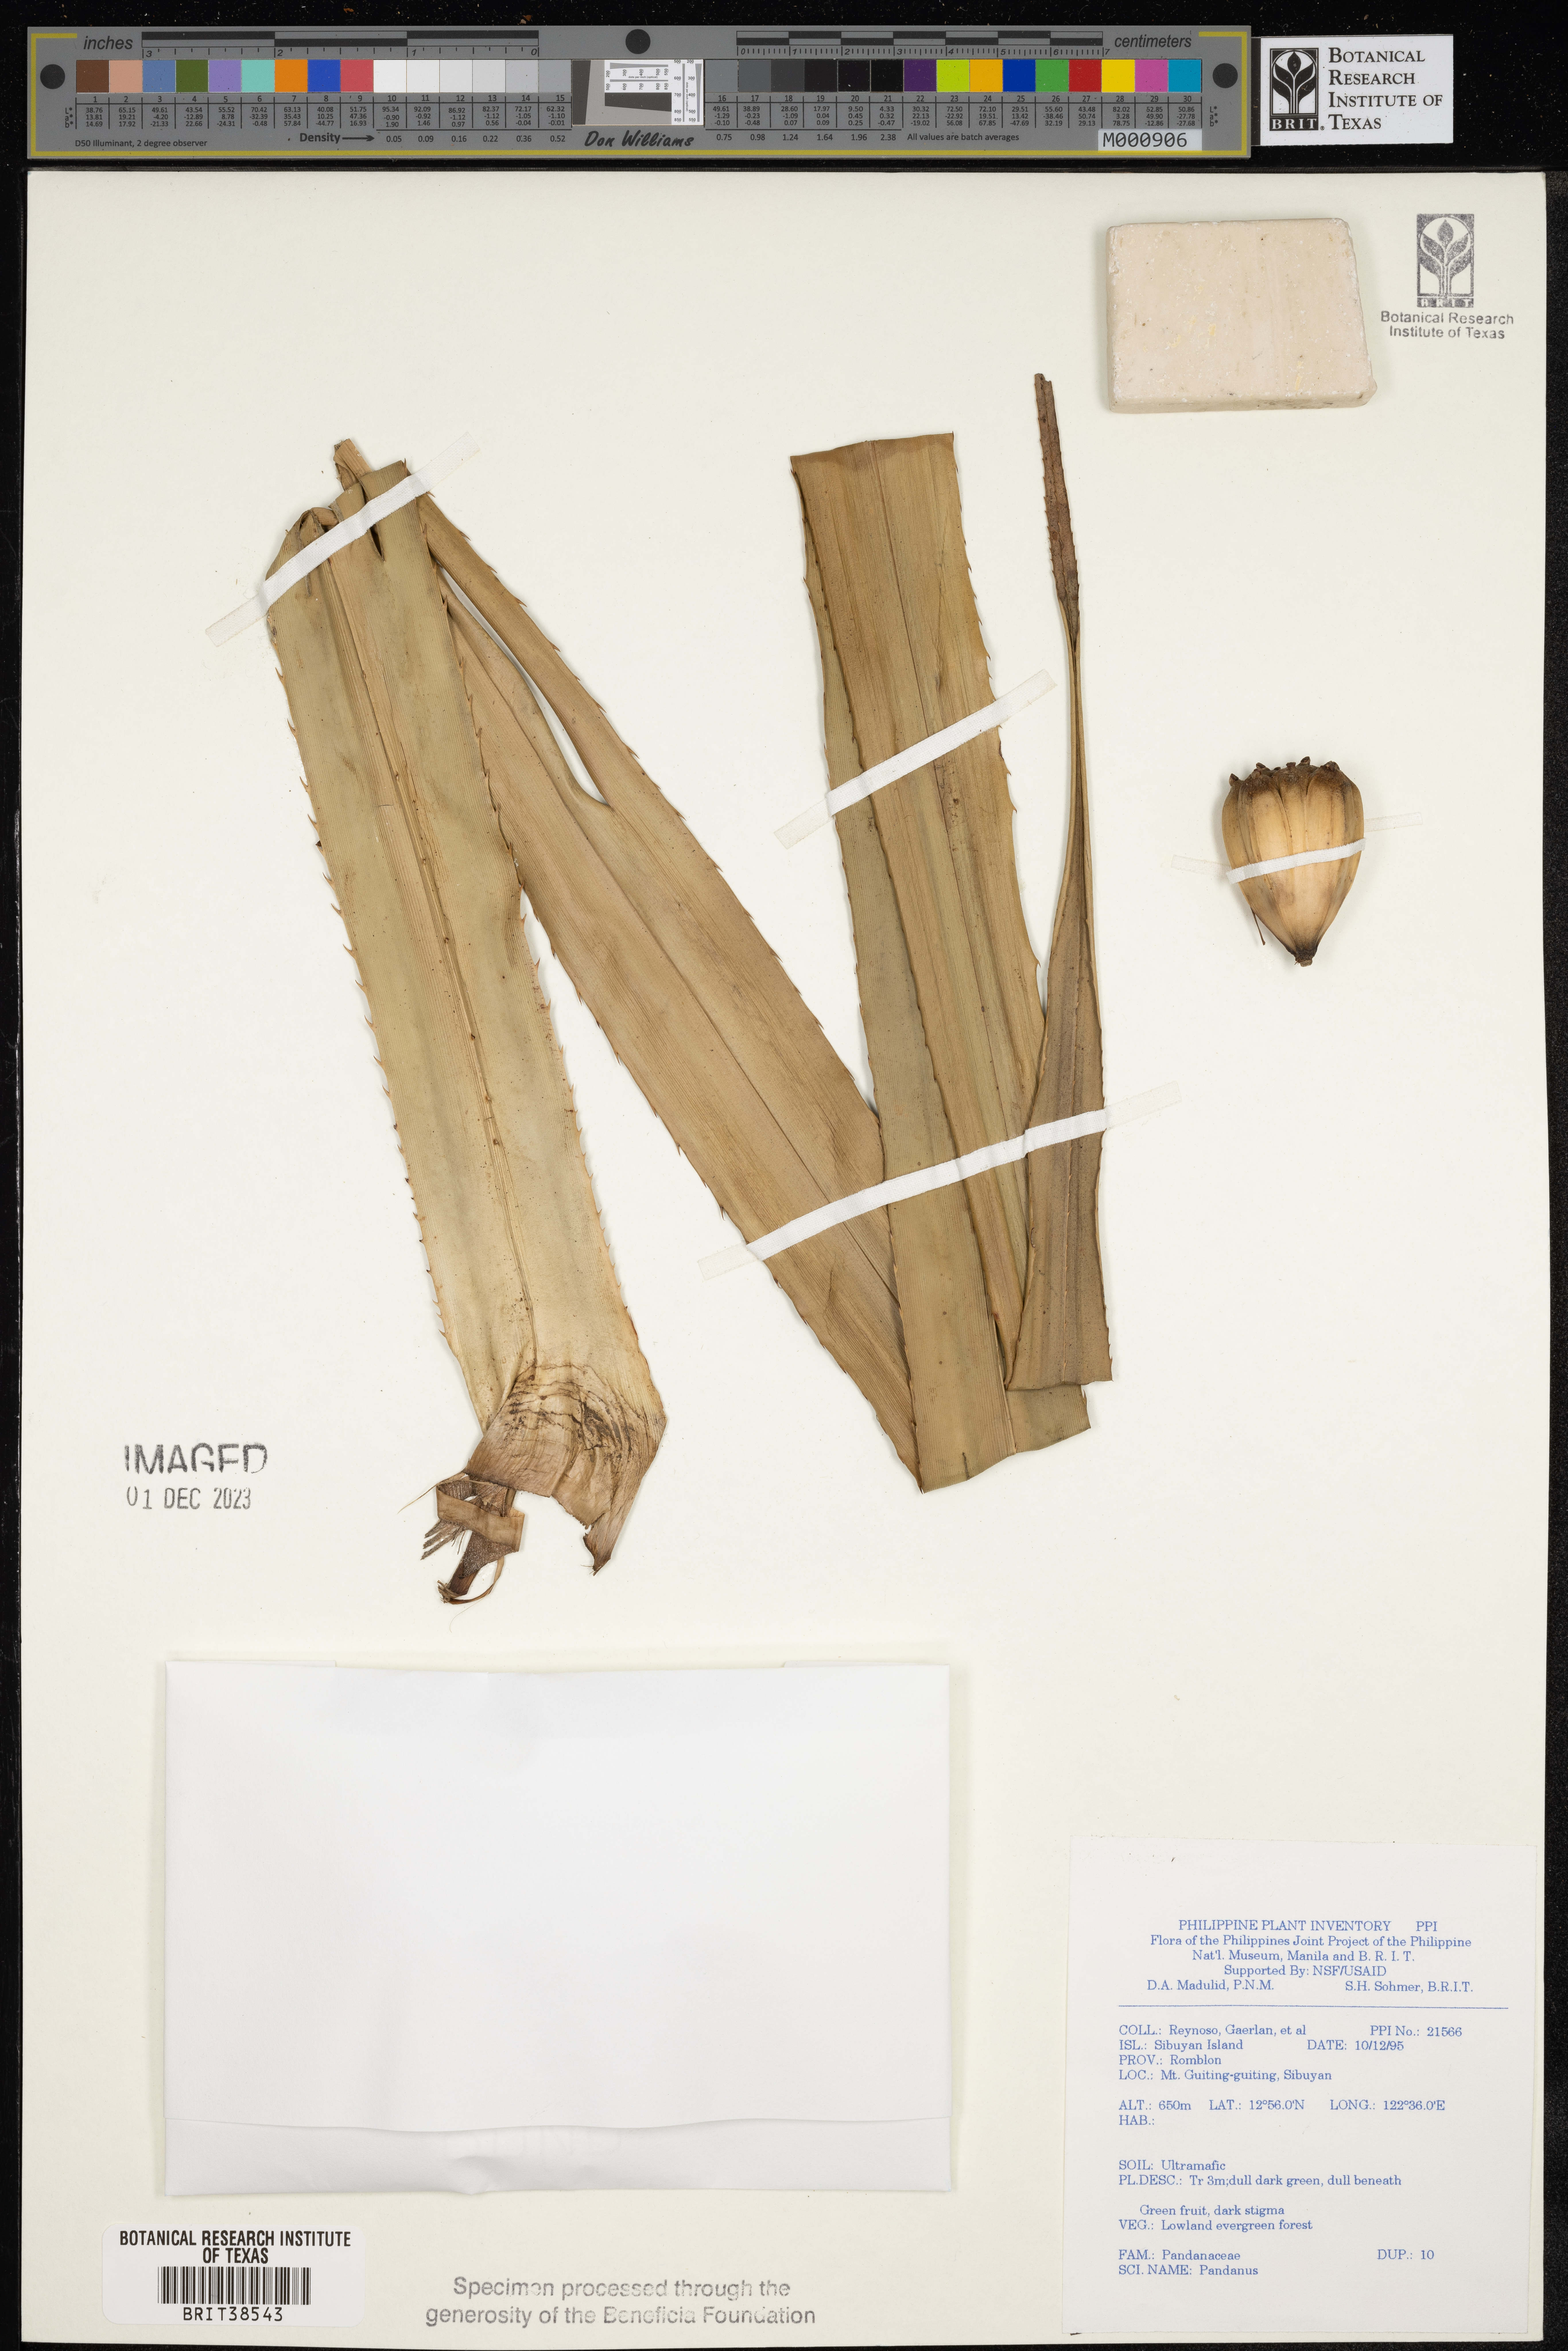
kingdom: Plantae
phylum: Tracheophyta
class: Liliopsida
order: Pandanales
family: Pandanaceae
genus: Pandanus
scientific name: Pandanus
